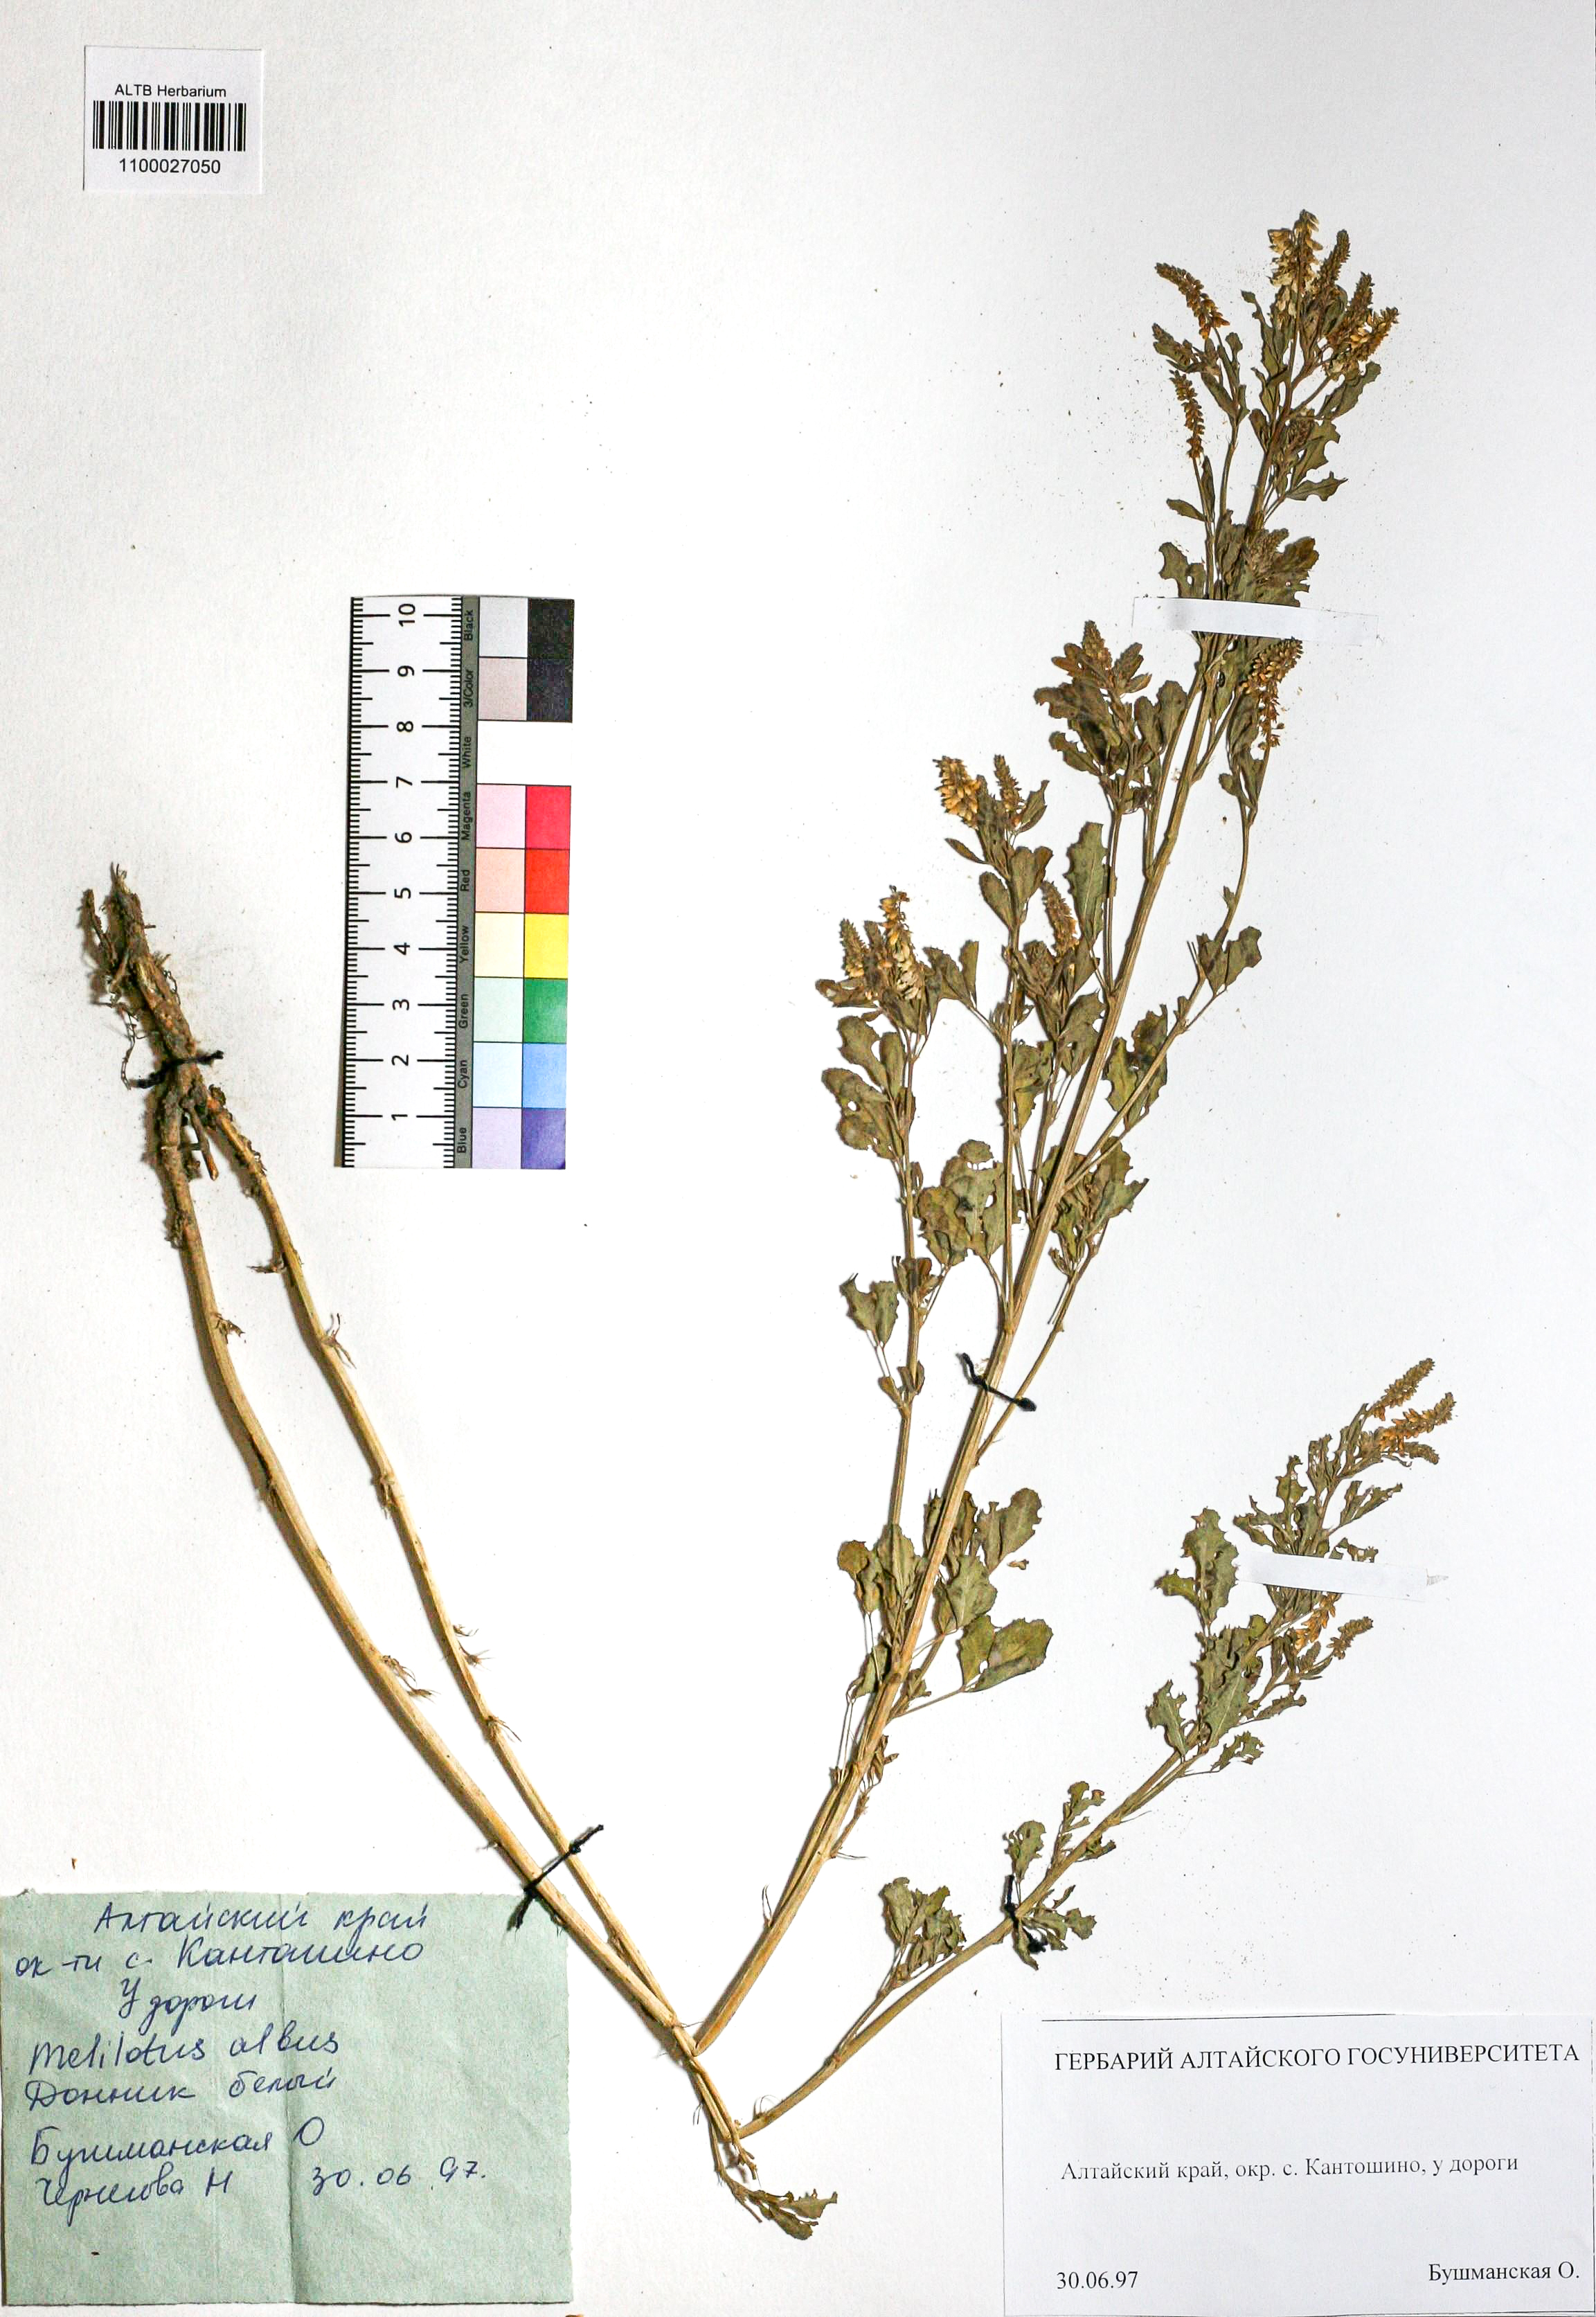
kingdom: Plantae
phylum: Tracheophyta
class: Magnoliopsida
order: Fabales
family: Fabaceae
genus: Melilotus
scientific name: Melilotus albus
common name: White melilot
